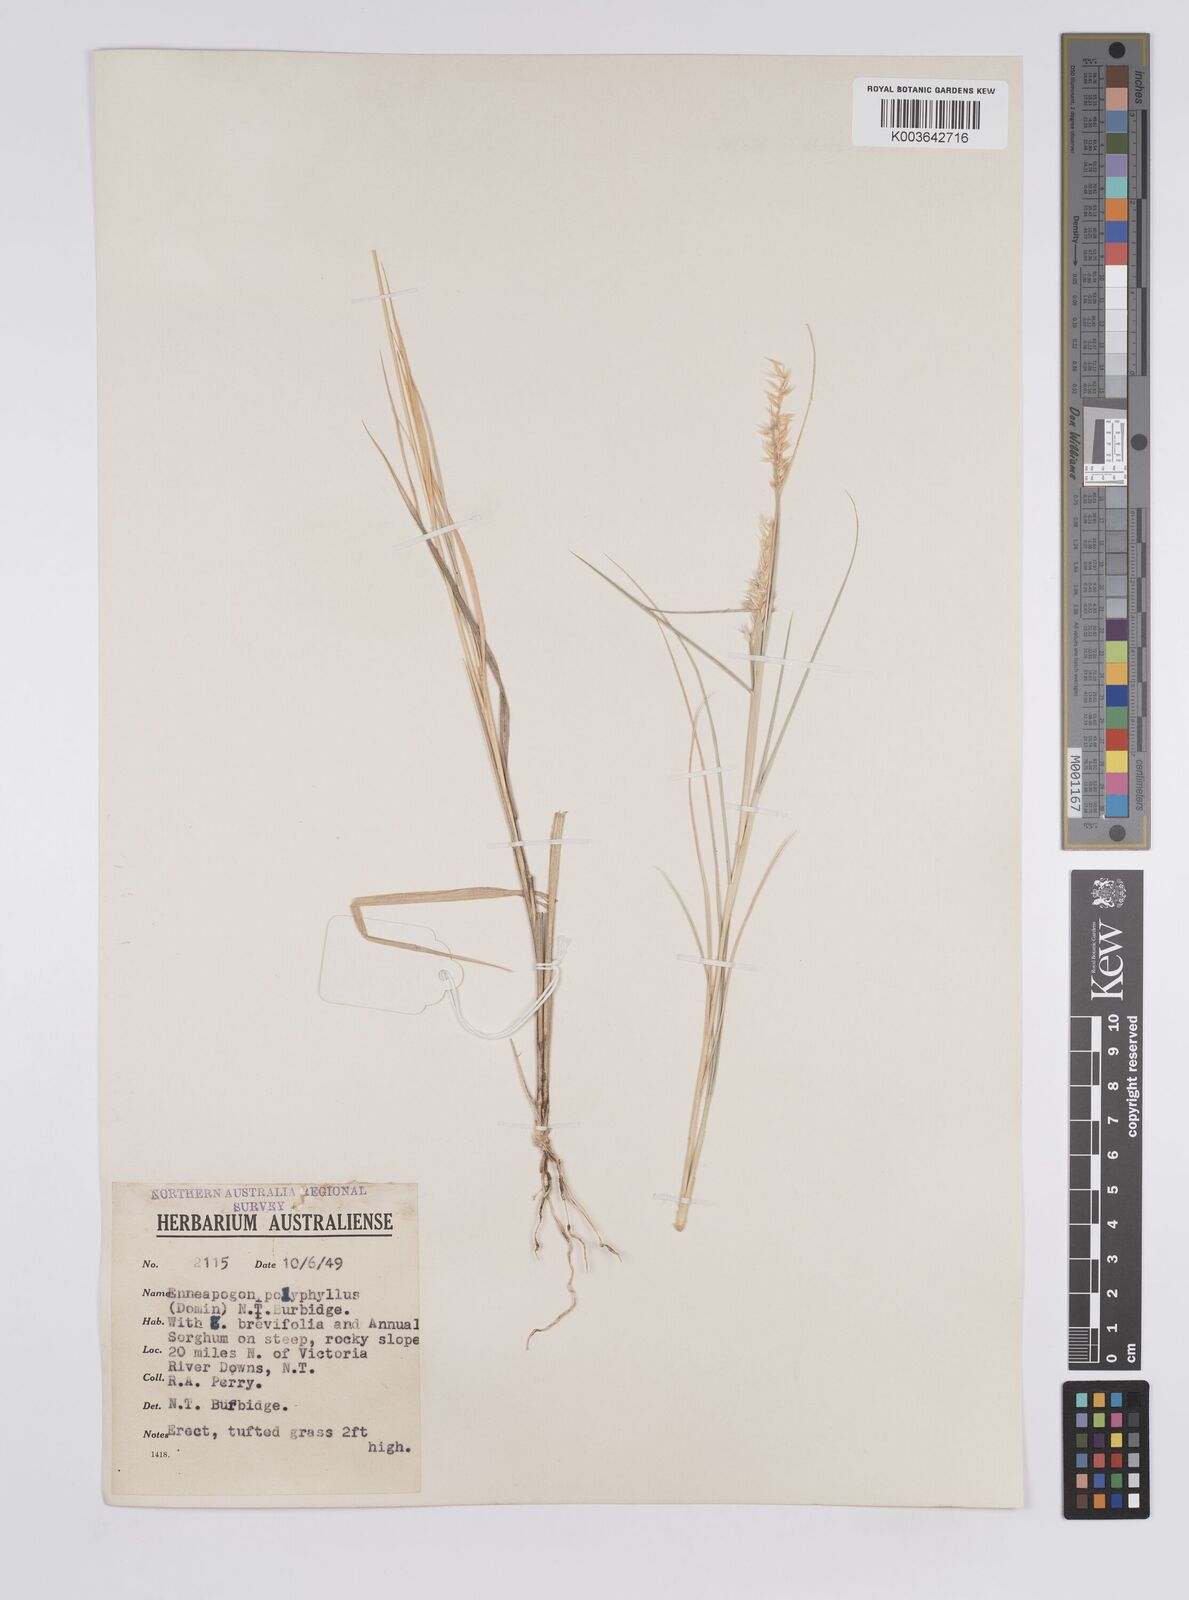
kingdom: Plantae
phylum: Tracheophyta
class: Liliopsida
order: Poales
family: Poaceae
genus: Enneapogon
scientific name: Enneapogon polyphyllus
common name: Leafy nineawn
